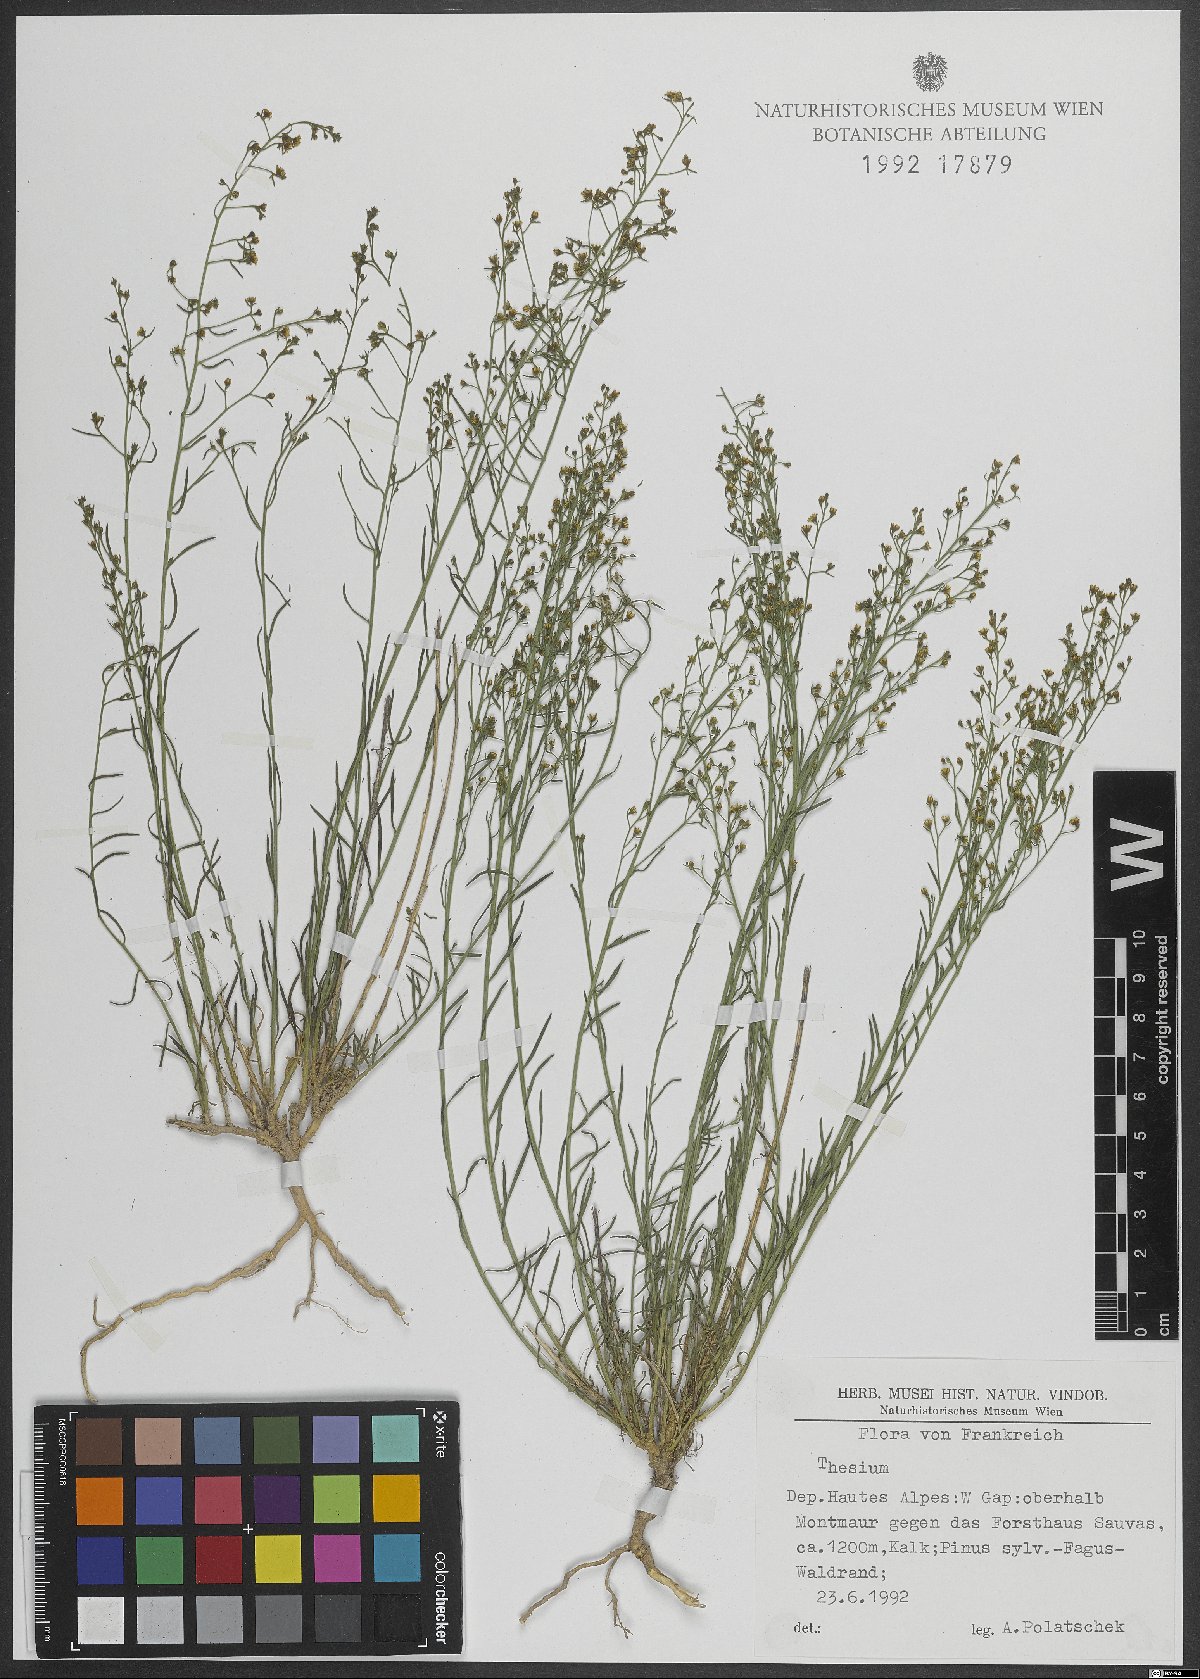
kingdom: Plantae
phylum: Tracheophyta
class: Magnoliopsida
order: Santalales
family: Thesiaceae
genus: Thesium
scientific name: Thesium
